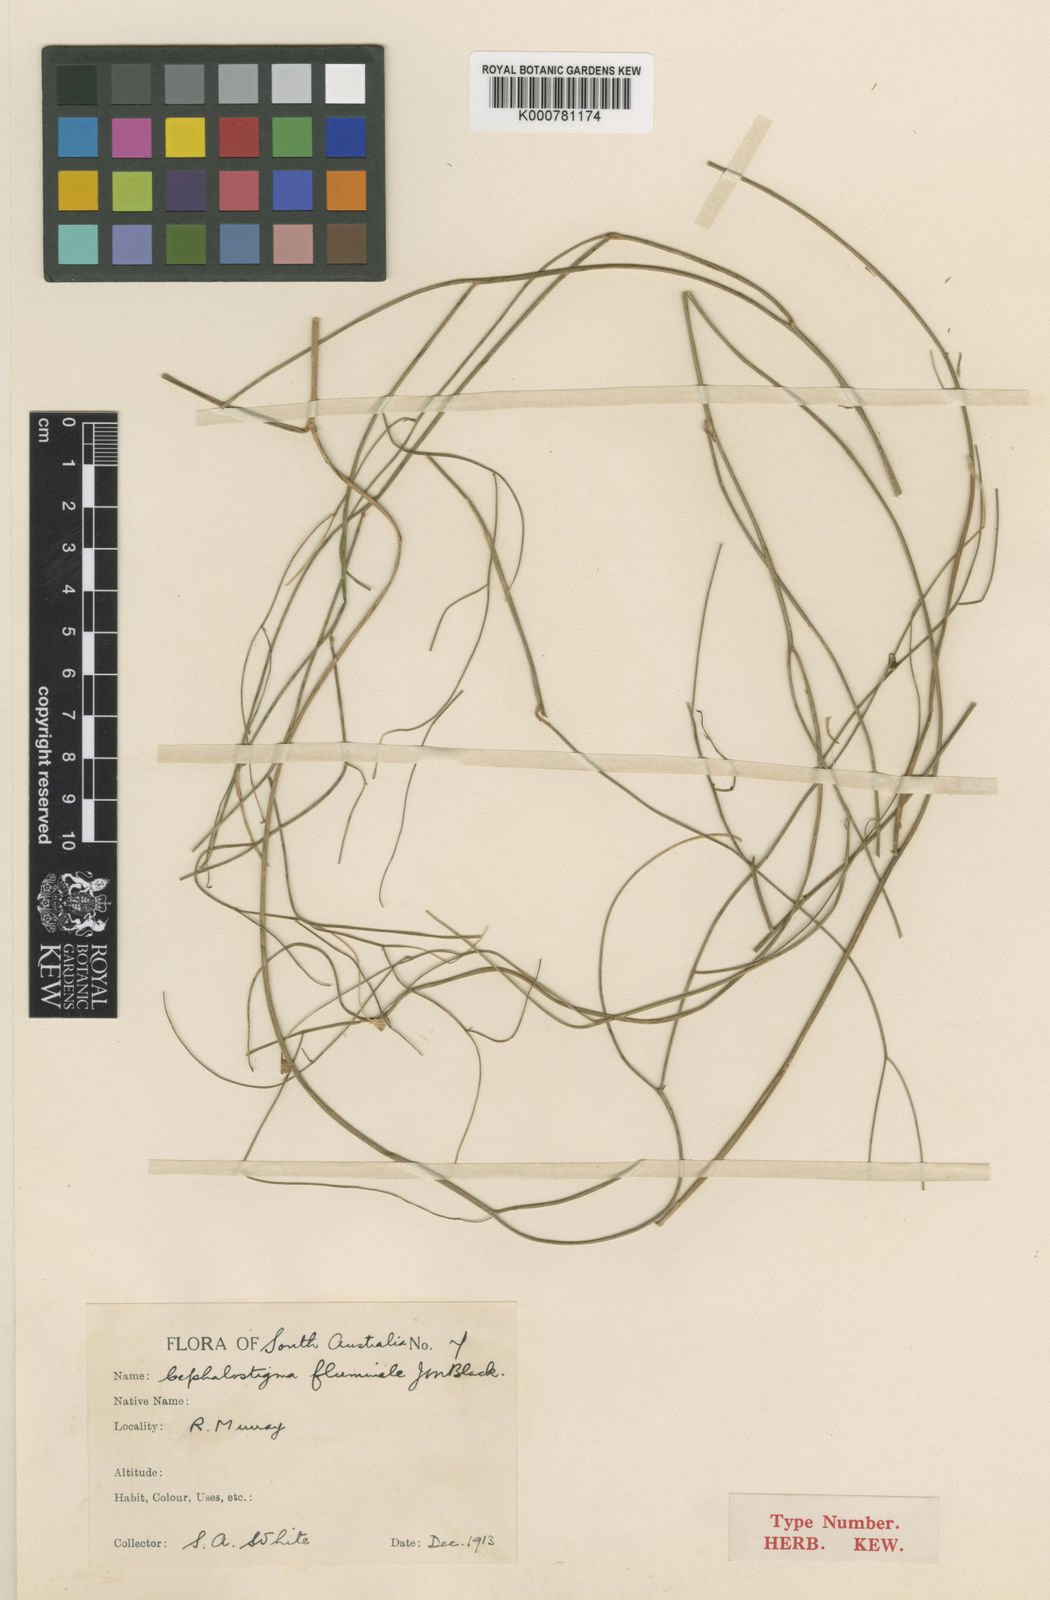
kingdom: Plantae
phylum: Tracheophyta
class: Magnoliopsida
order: Asterales
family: Campanulaceae
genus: Wahlenbergia
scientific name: Wahlenbergia fluminalis
